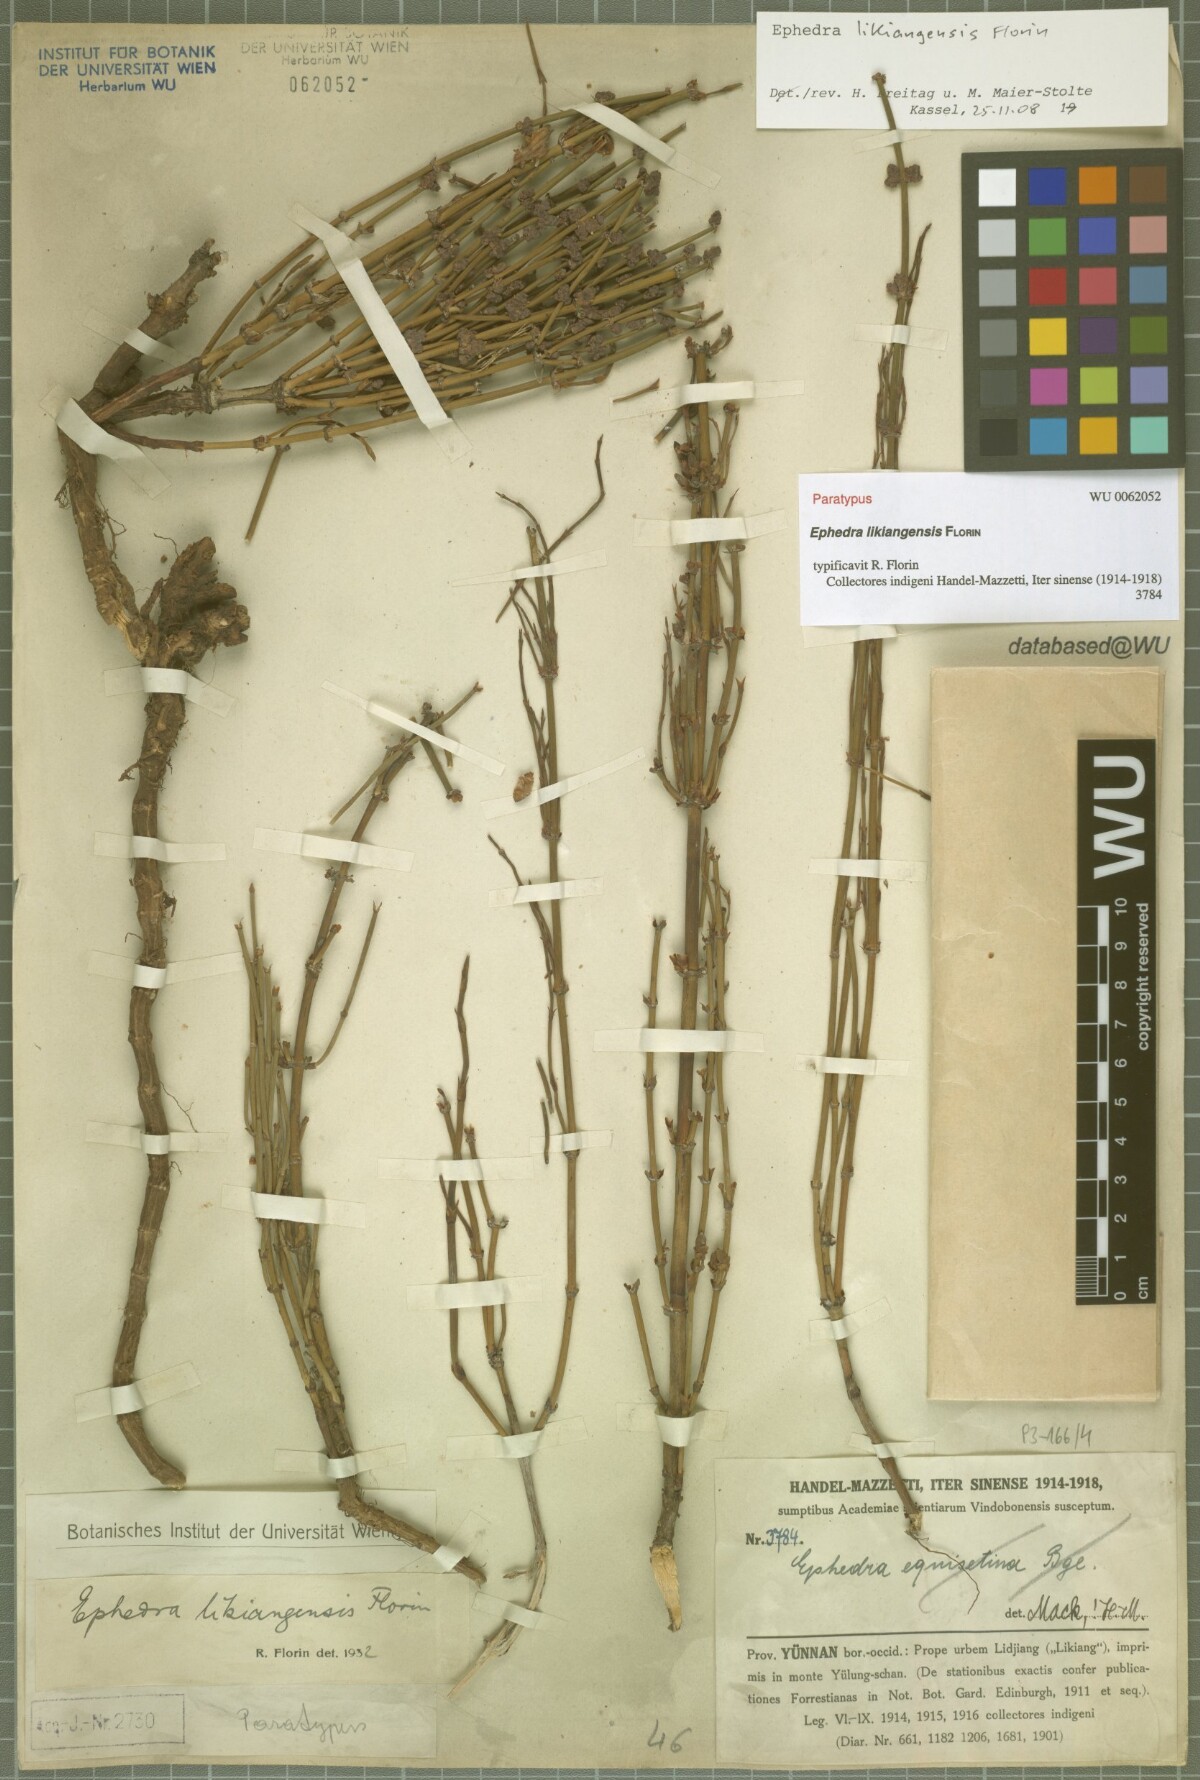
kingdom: Plantae
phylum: Tracheophyta
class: Gnetopsida
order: Ephedrales
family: Ephedraceae
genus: Ephedra
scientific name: Ephedra likiangensis
